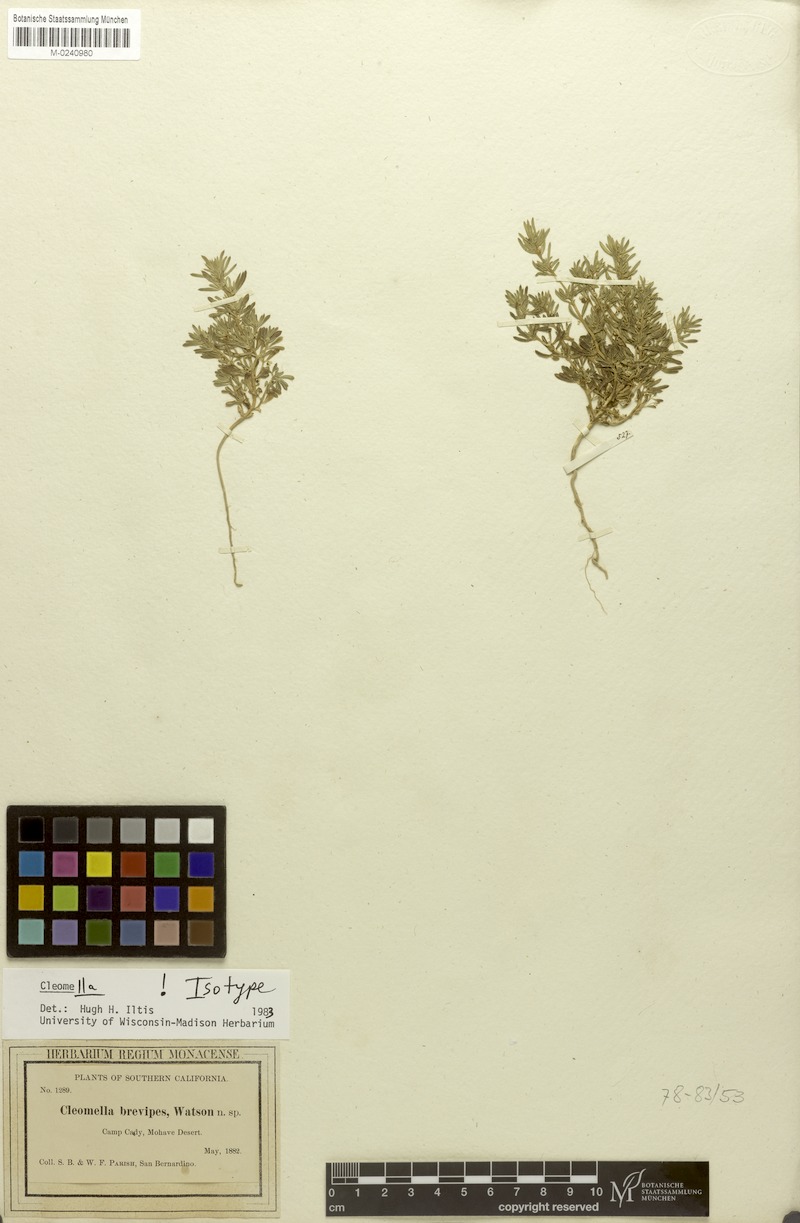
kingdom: Plantae
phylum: Tracheophyta
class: Magnoliopsida
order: Brassicales
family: Cleomaceae
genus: Cleomella
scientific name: Cleomella brevipes
